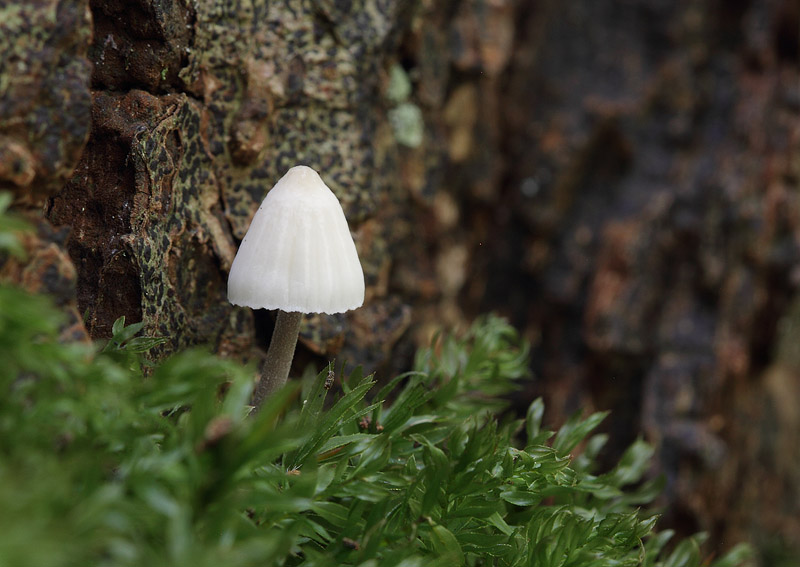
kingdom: Fungi
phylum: Basidiomycota
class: Agaricomycetes
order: Agaricales
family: Mycenaceae
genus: Mycena
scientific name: Mycena galopus
